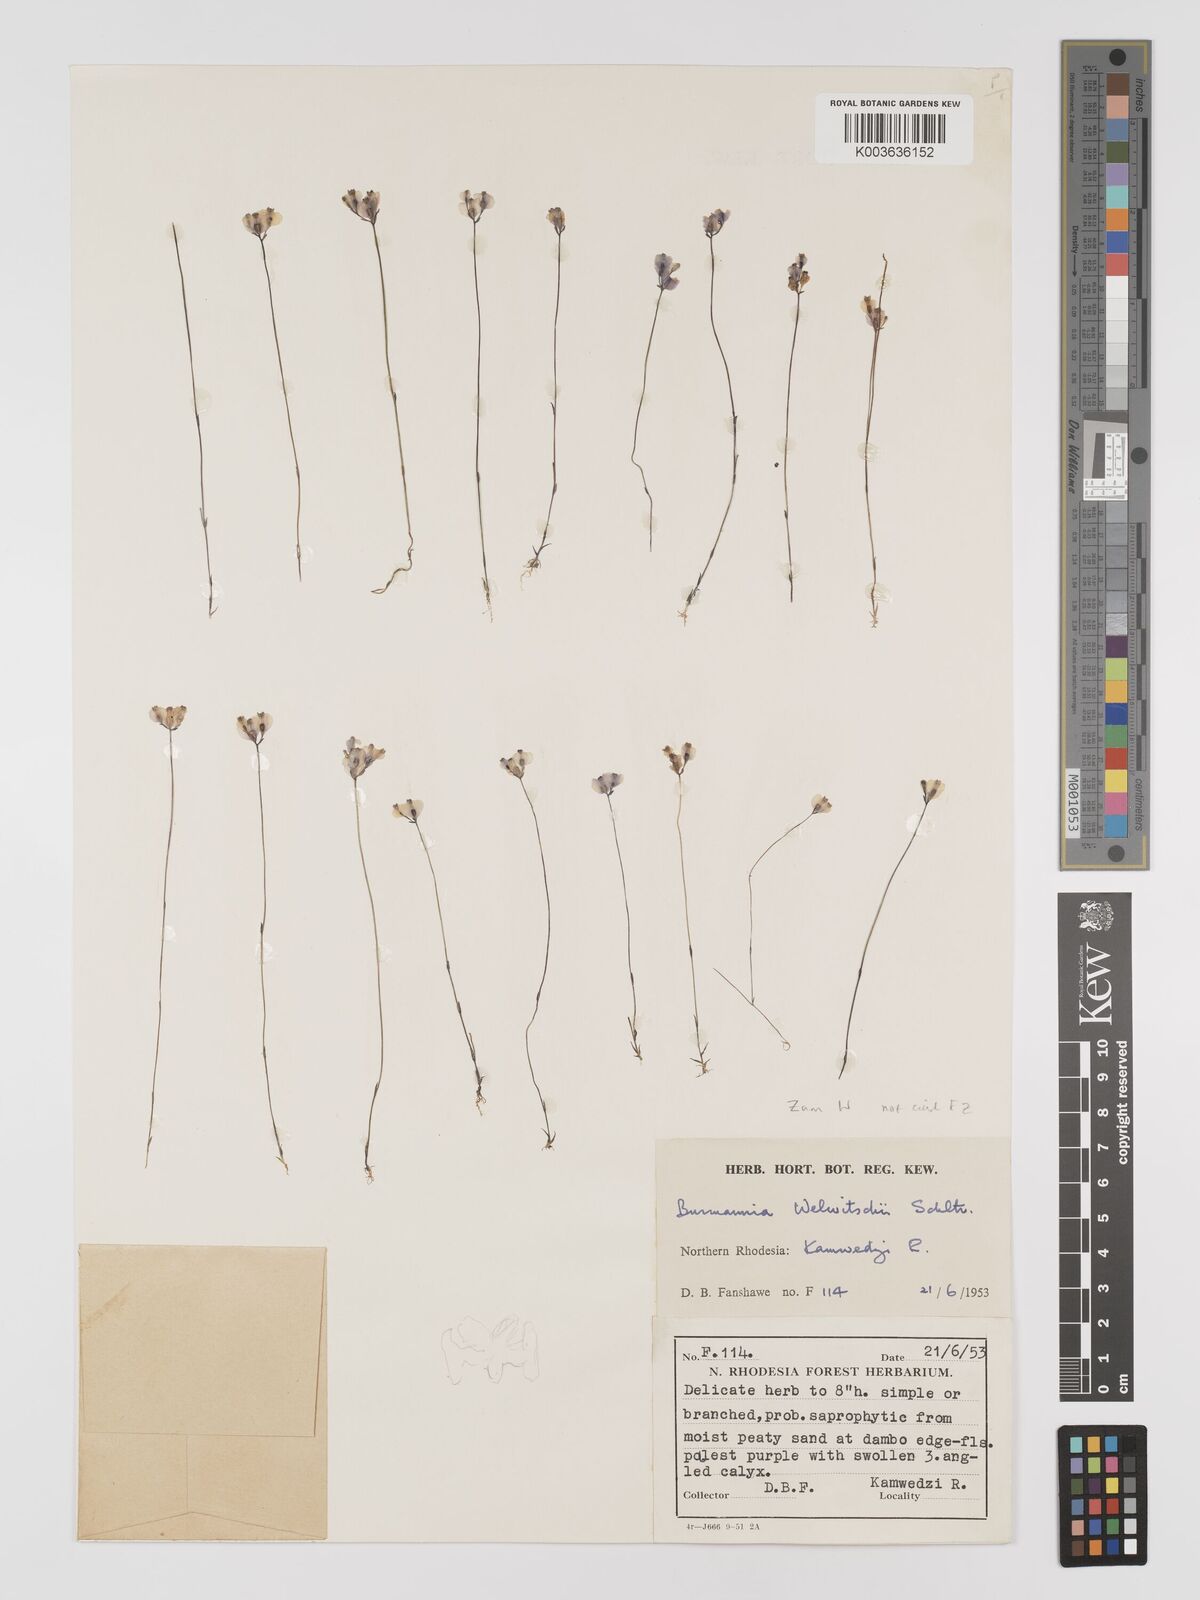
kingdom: Plantae
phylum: Tracheophyta
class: Liliopsida
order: Dioscoreales
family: Burmanniaceae
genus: Burmannia
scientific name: Burmannia madagascariensis
